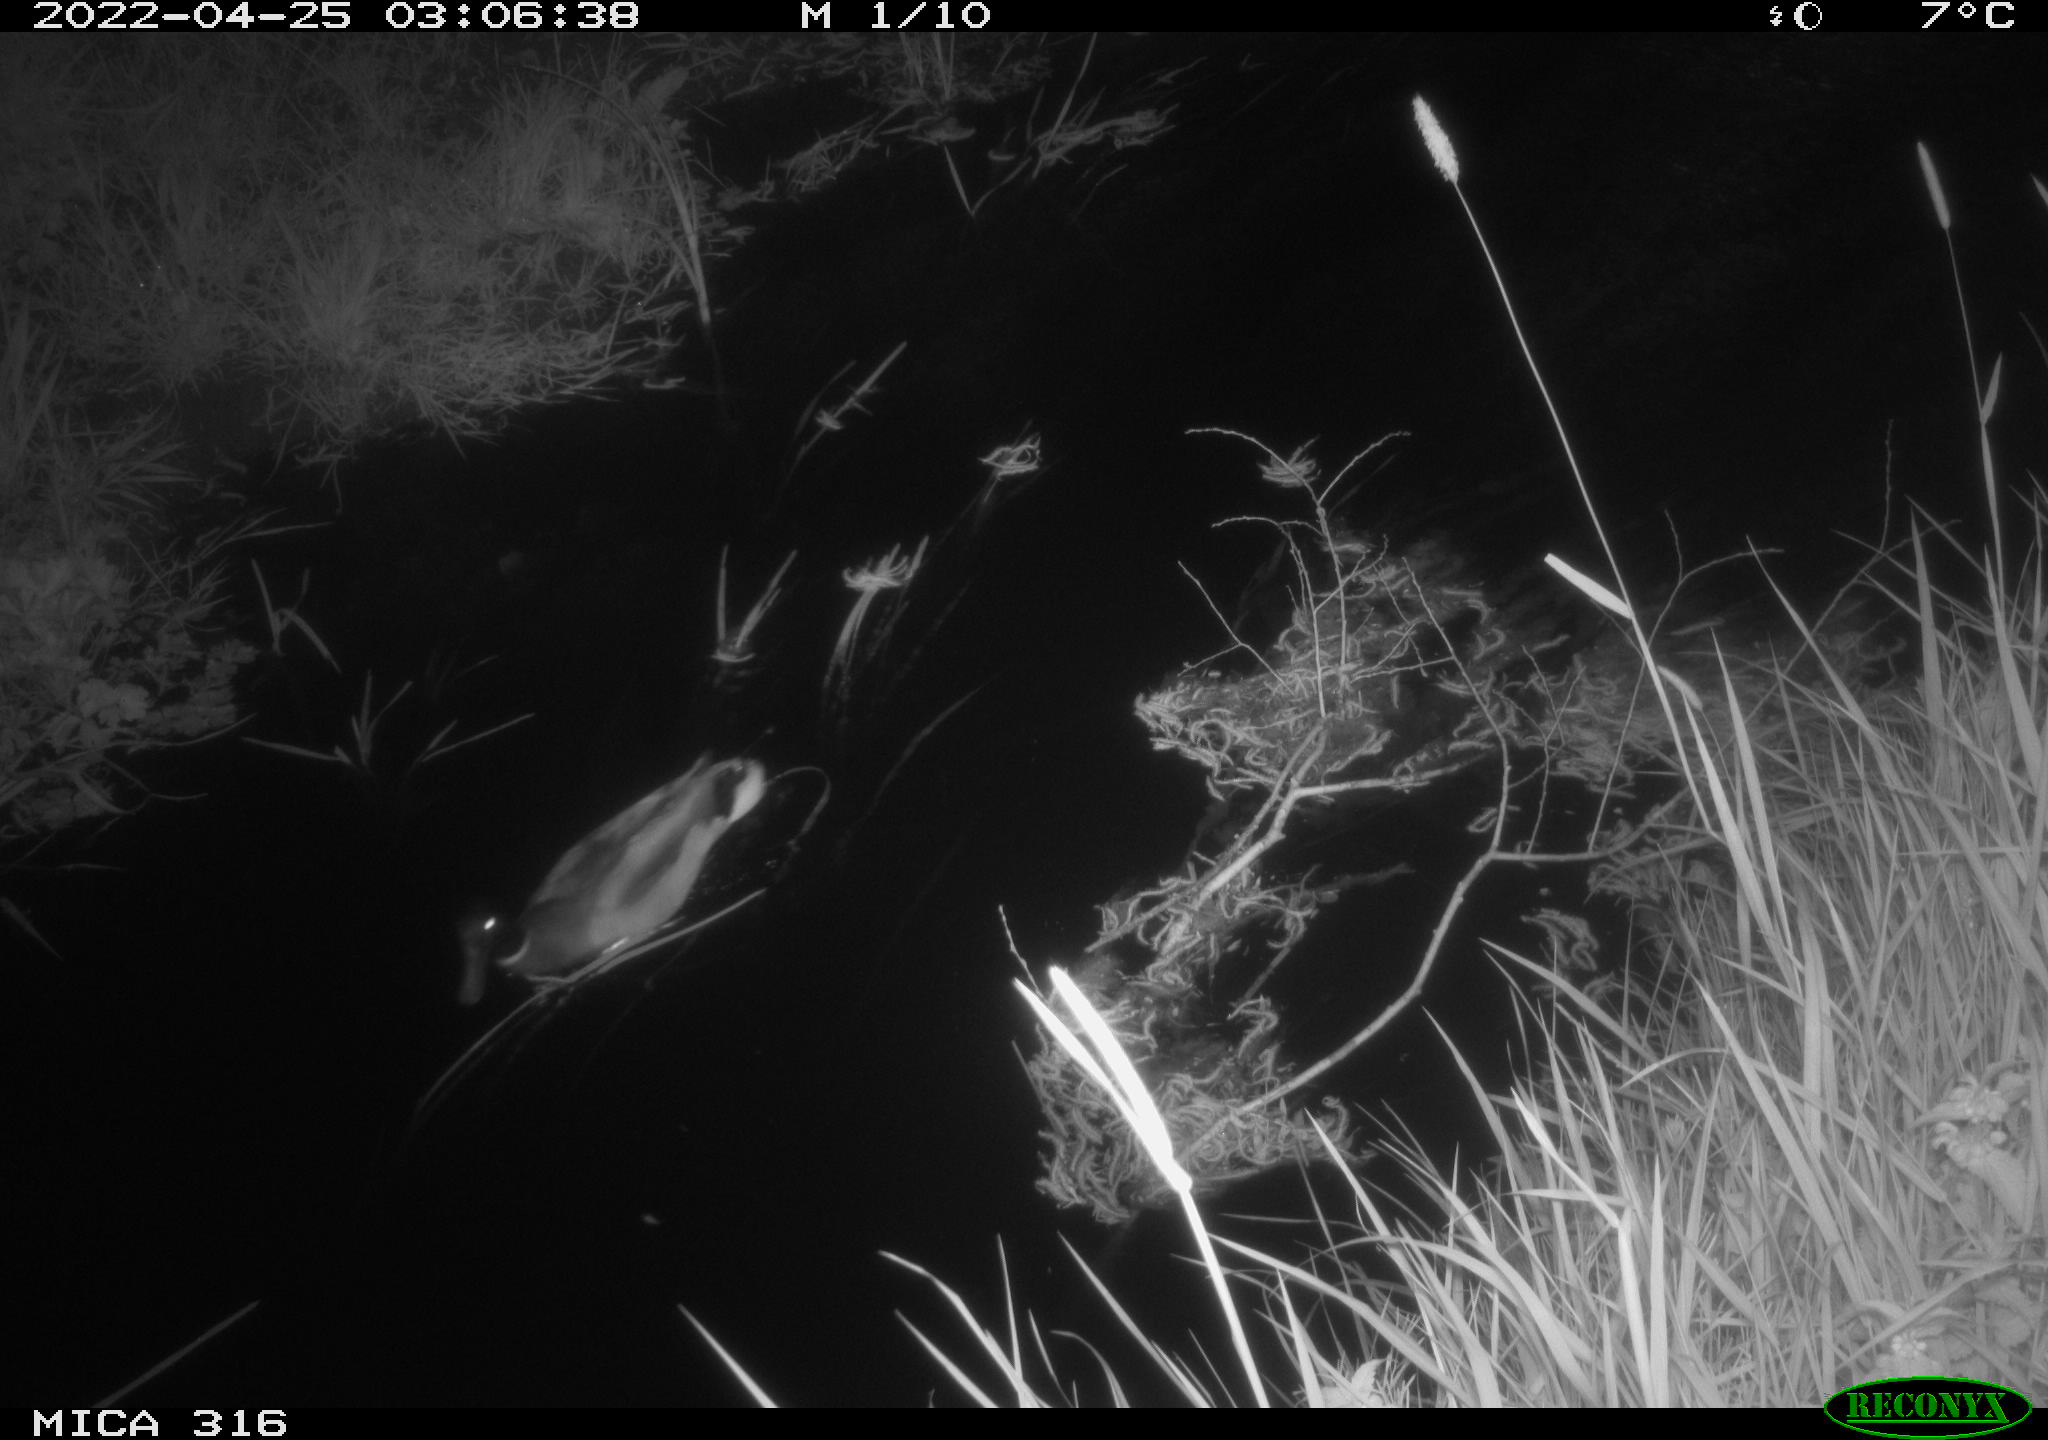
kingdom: Animalia
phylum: Chordata
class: Aves
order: Anseriformes
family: Anatidae
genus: Anas
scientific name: Anas platyrhynchos
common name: Mallard
